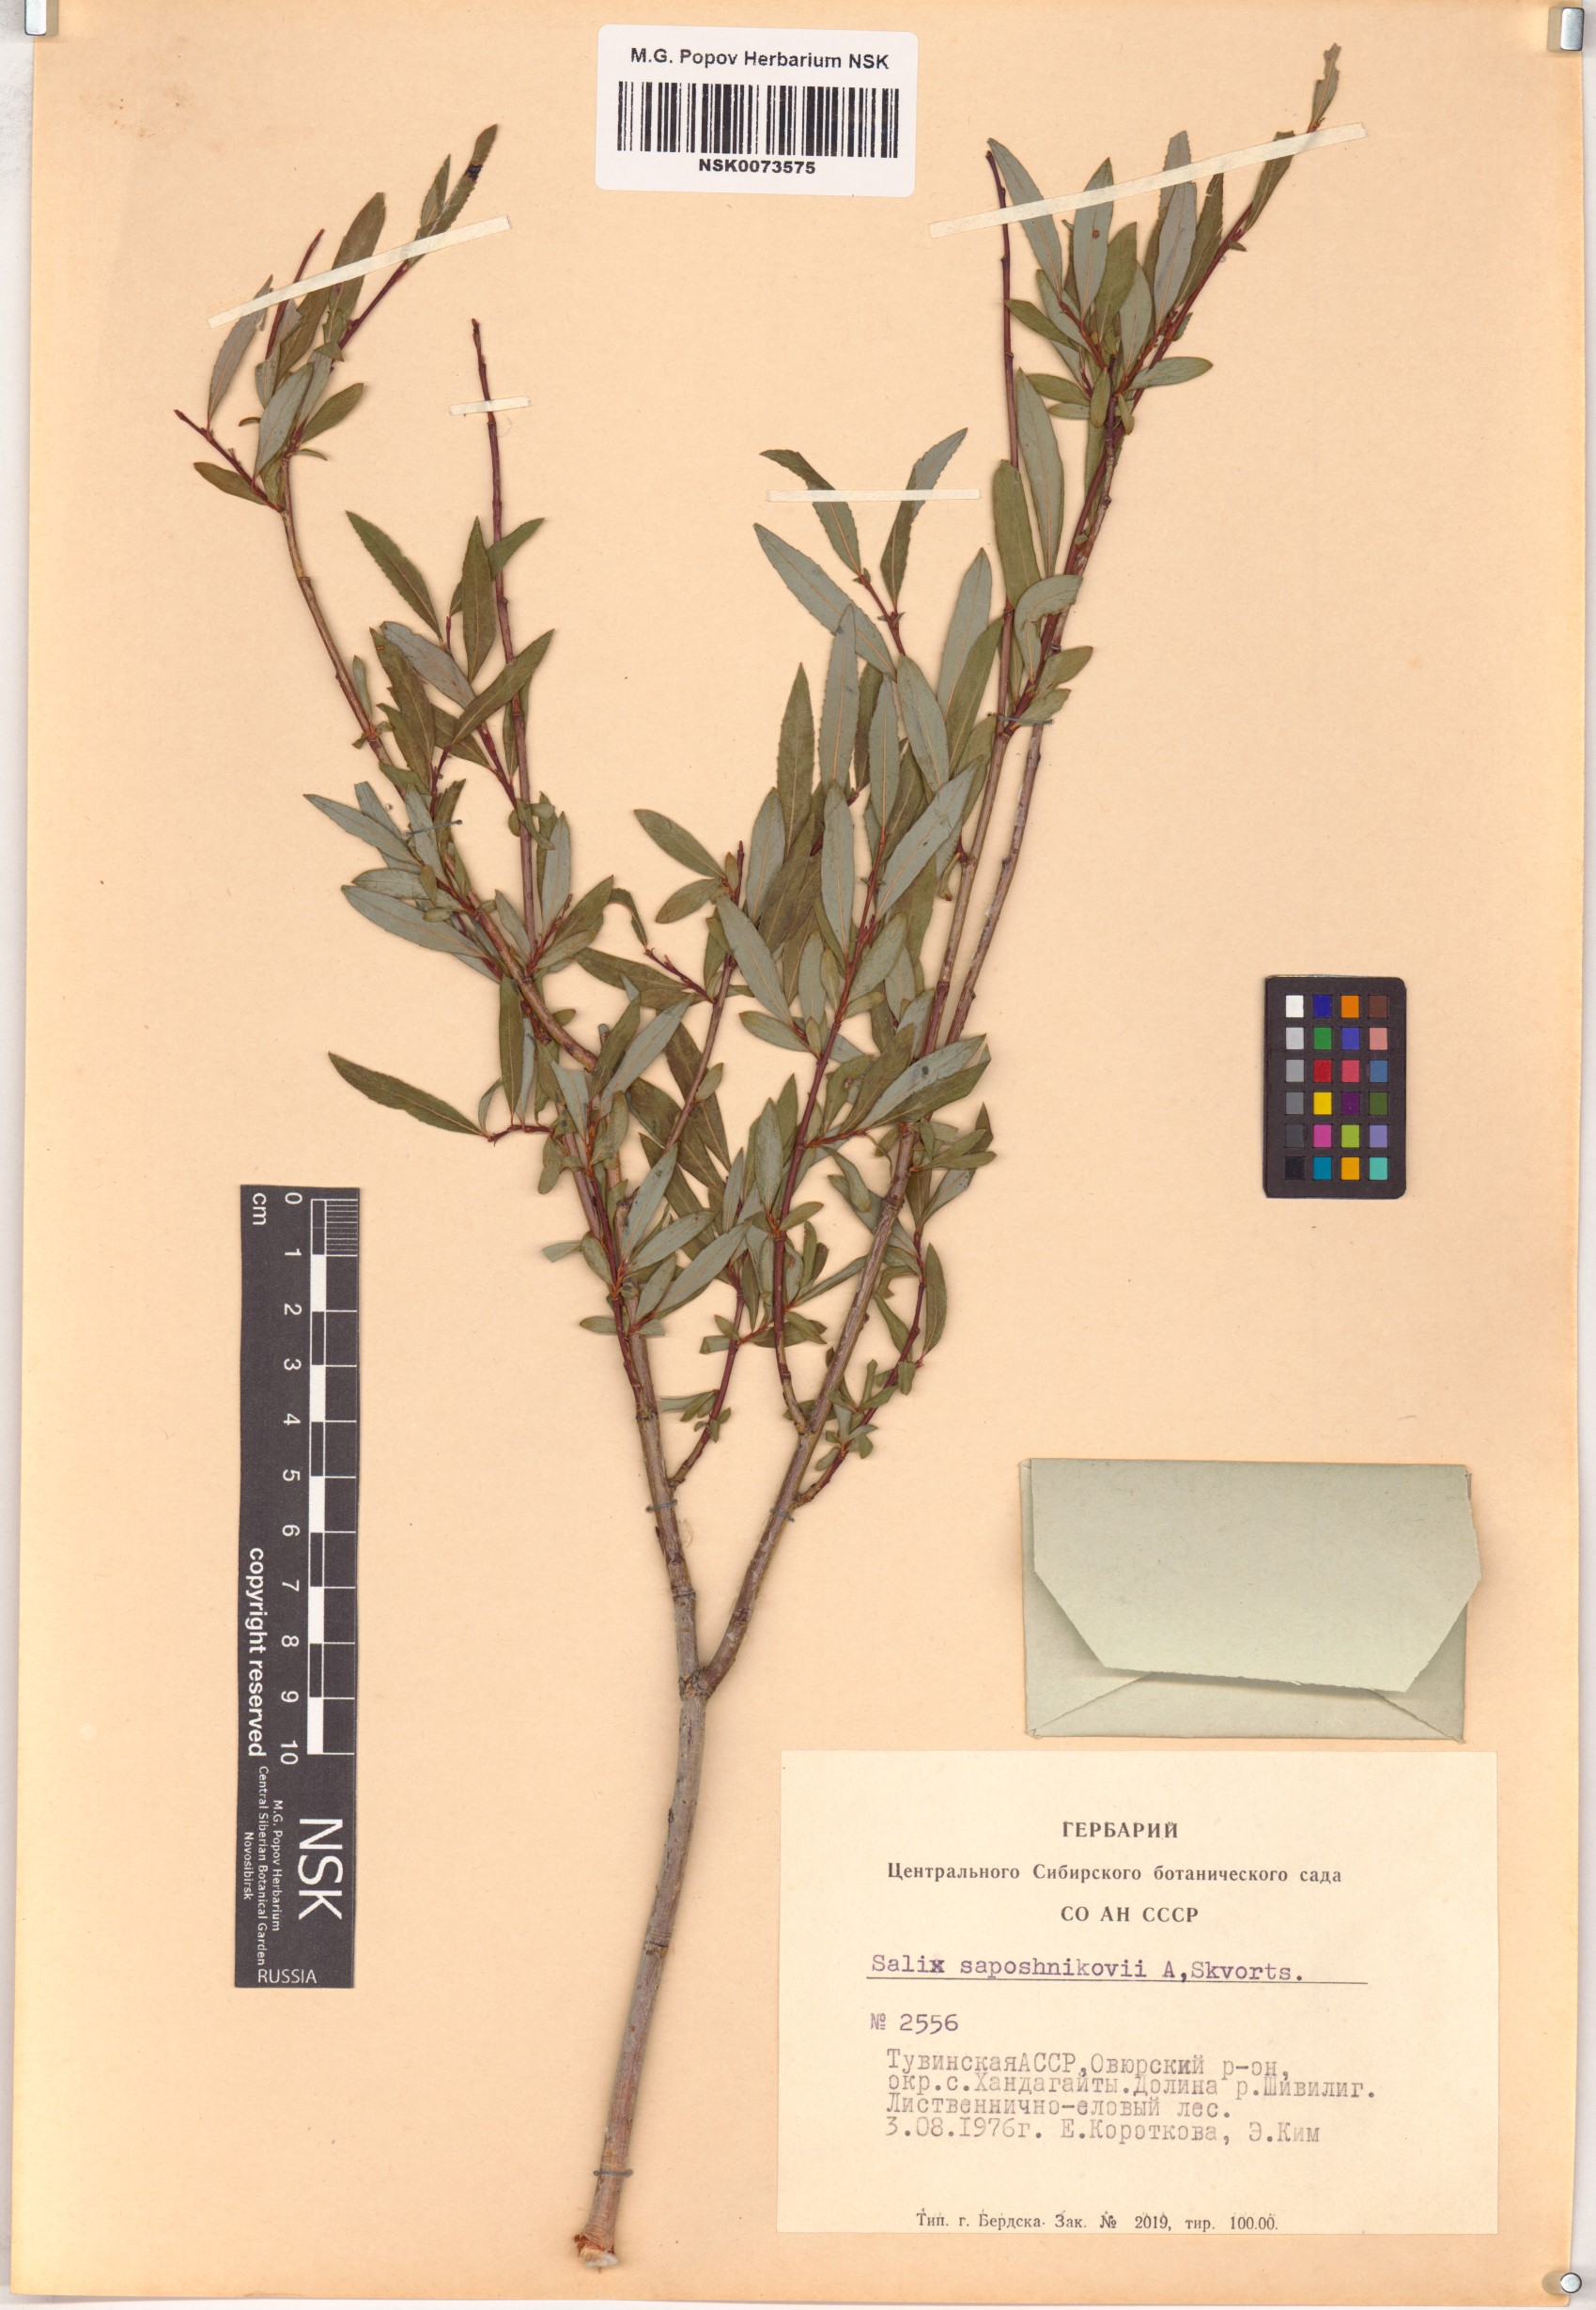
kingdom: Plantae
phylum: Tracheophyta
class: Magnoliopsida
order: Malpighiales
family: Salicaceae
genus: Salix
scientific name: Salix saposhnikovii
